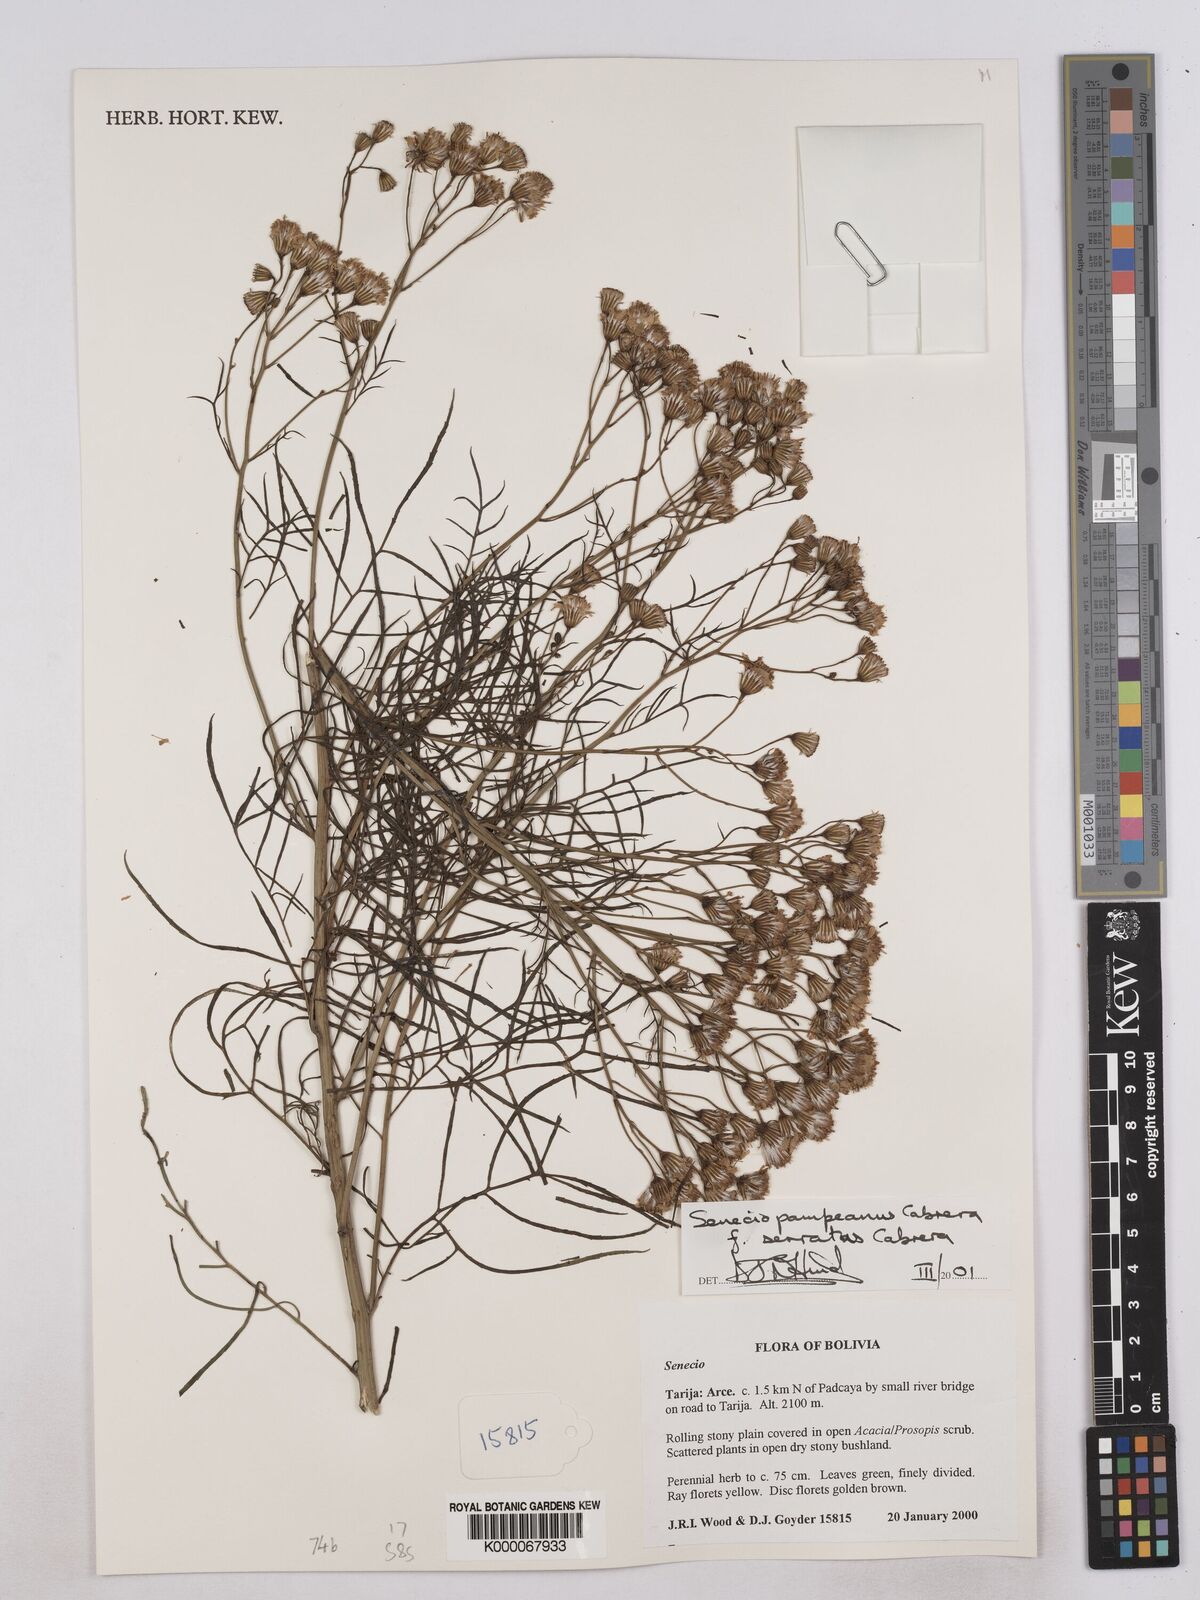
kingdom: Plantae
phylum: Tracheophyta
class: Magnoliopsida
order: Asterales
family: Asteraceae
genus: Senecio
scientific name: Senecio pampeanus
